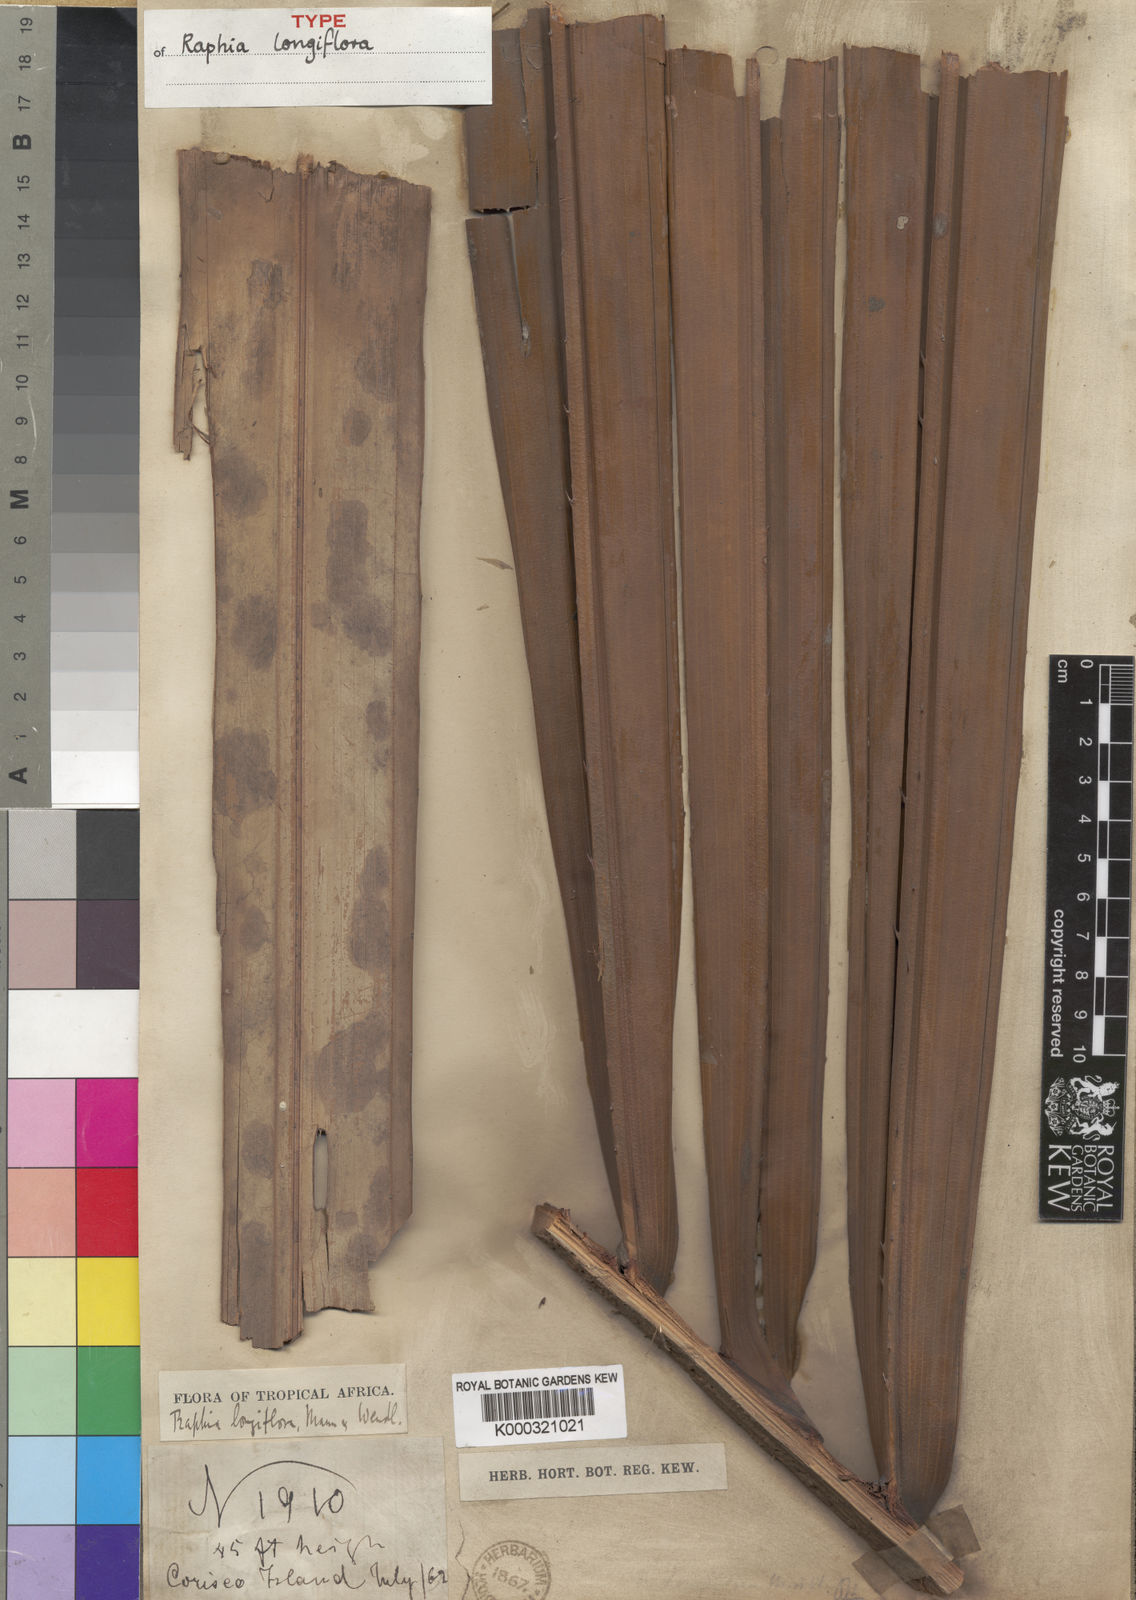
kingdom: Plantae
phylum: Tracheophyta
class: Liliopsida
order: Arecales
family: Arecaceae
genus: Raphia
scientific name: Raphia longiflora
